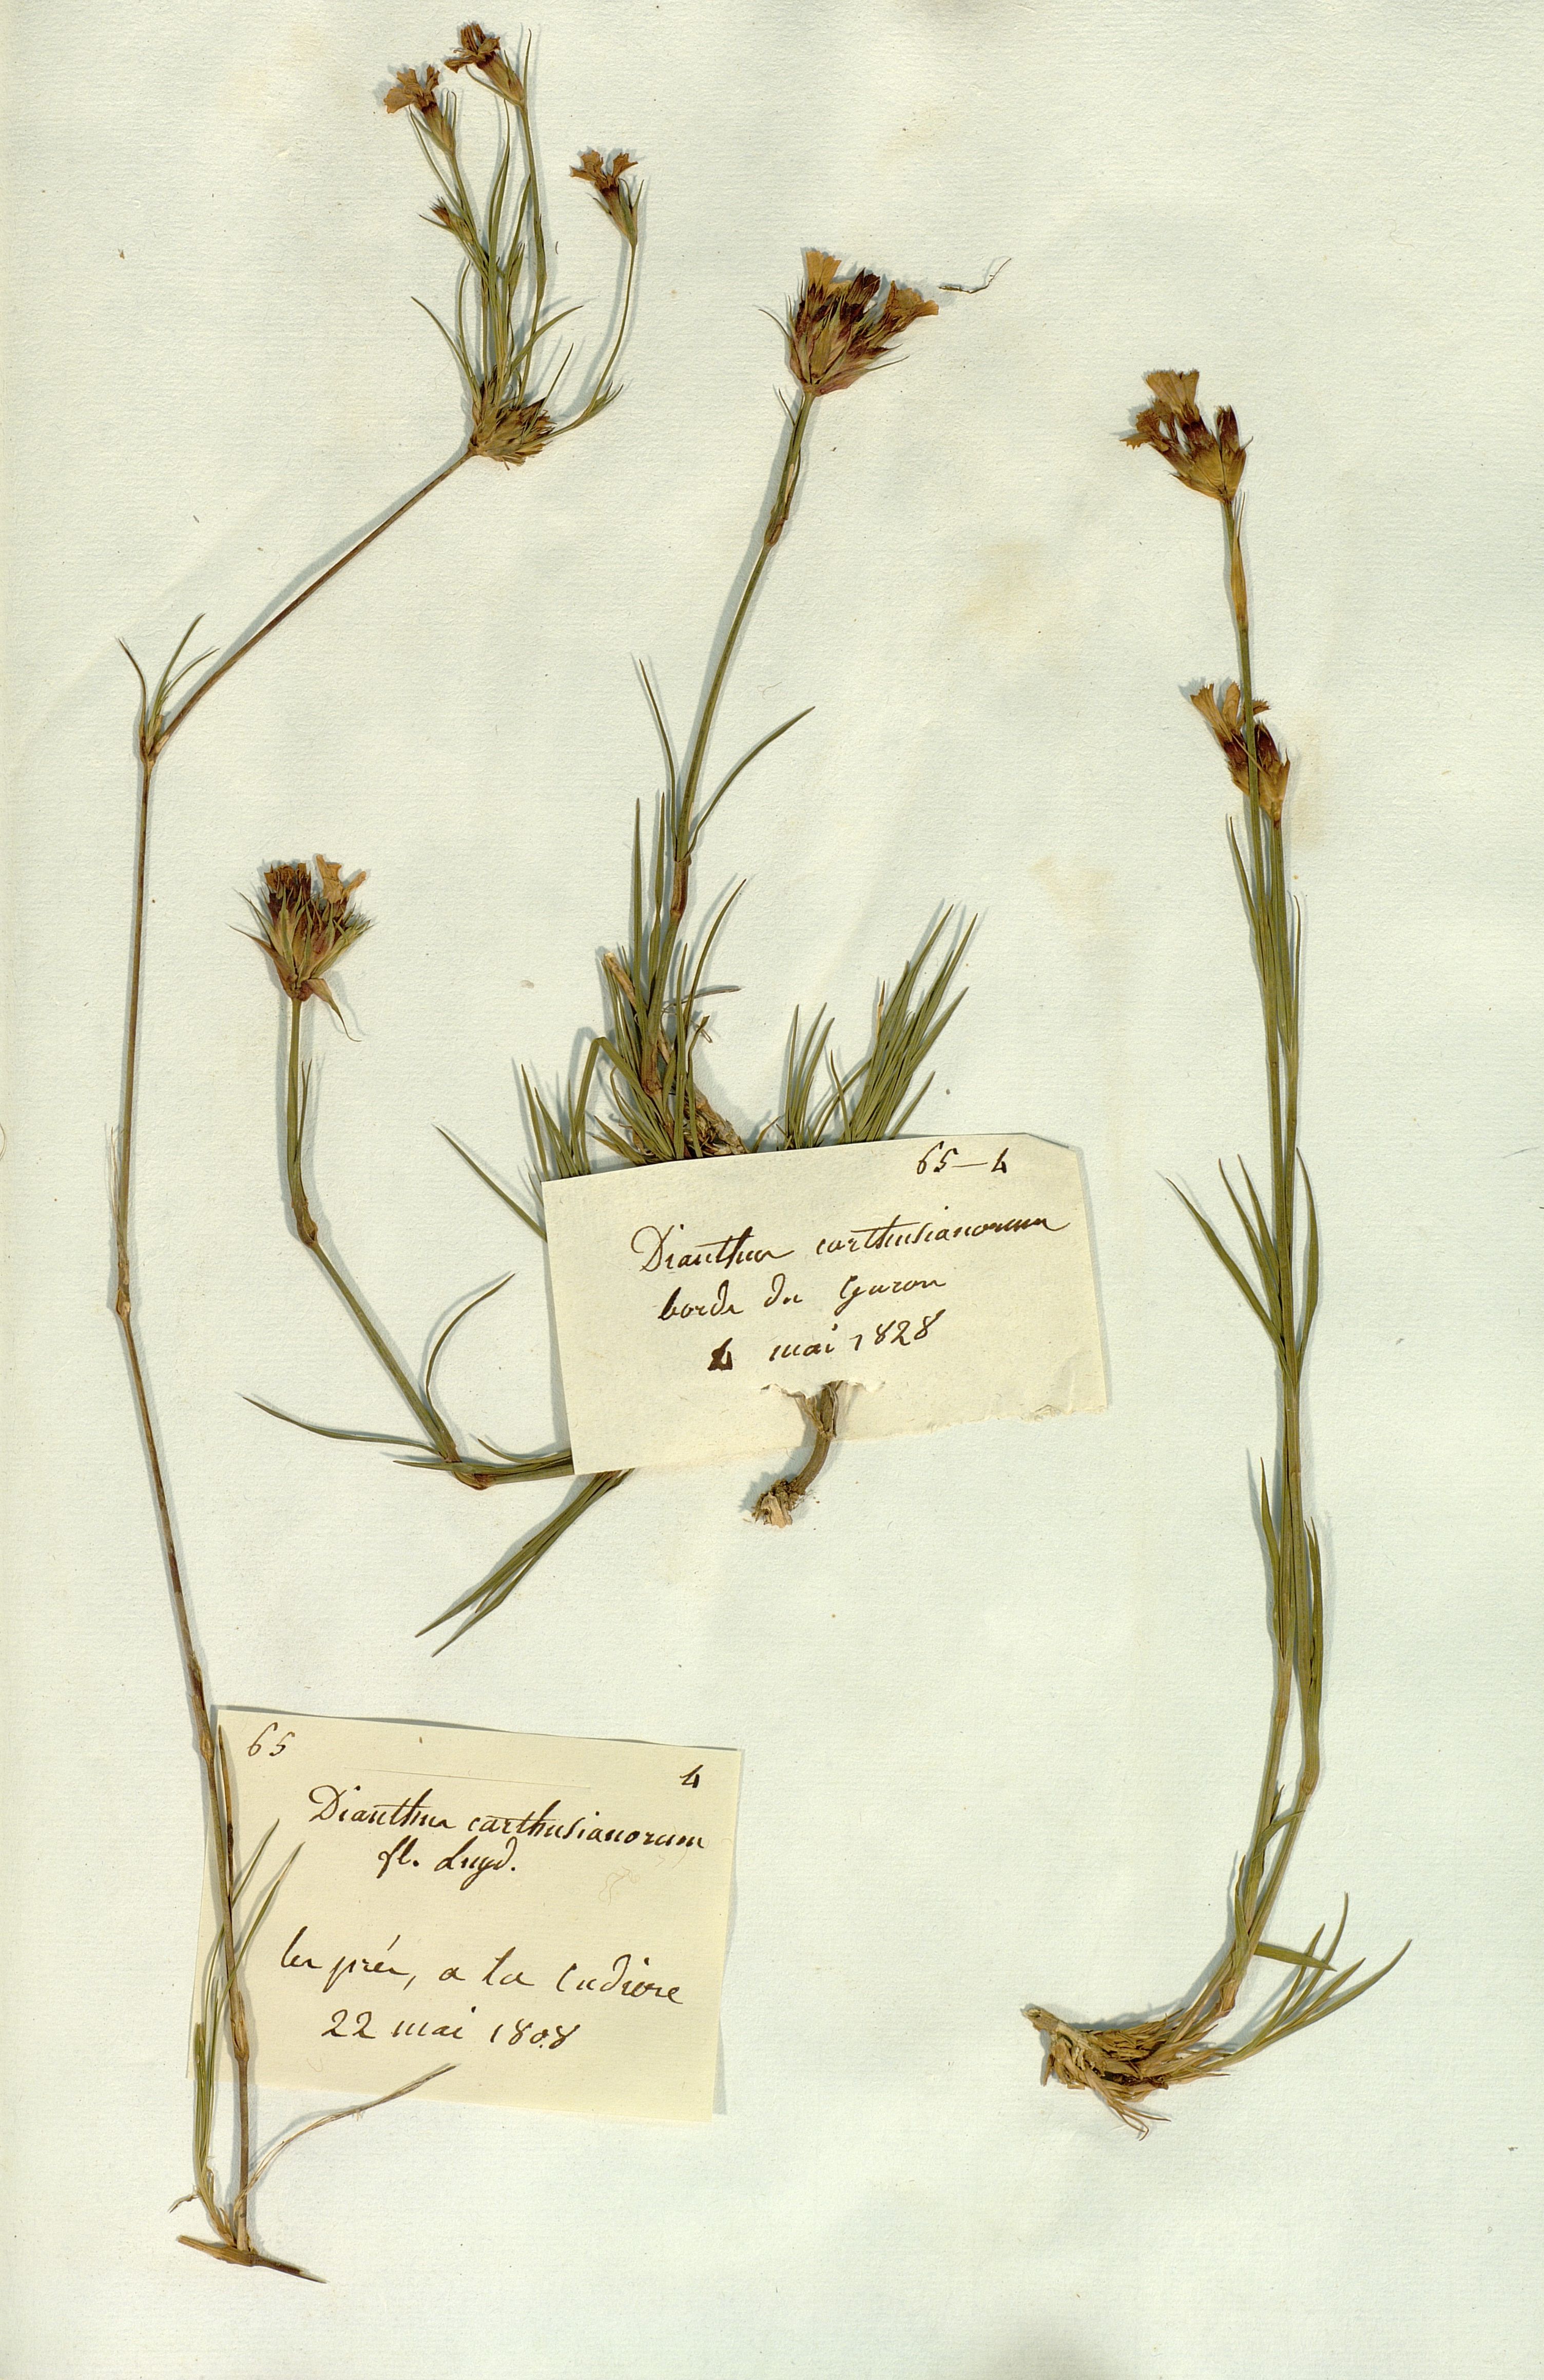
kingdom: Plantae
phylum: Tracheophyta
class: Magnoliopsida
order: Caryophyllales
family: Caryophyllaceae
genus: Dianthus
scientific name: Dianthus carthusianorum
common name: Carthusian pink
